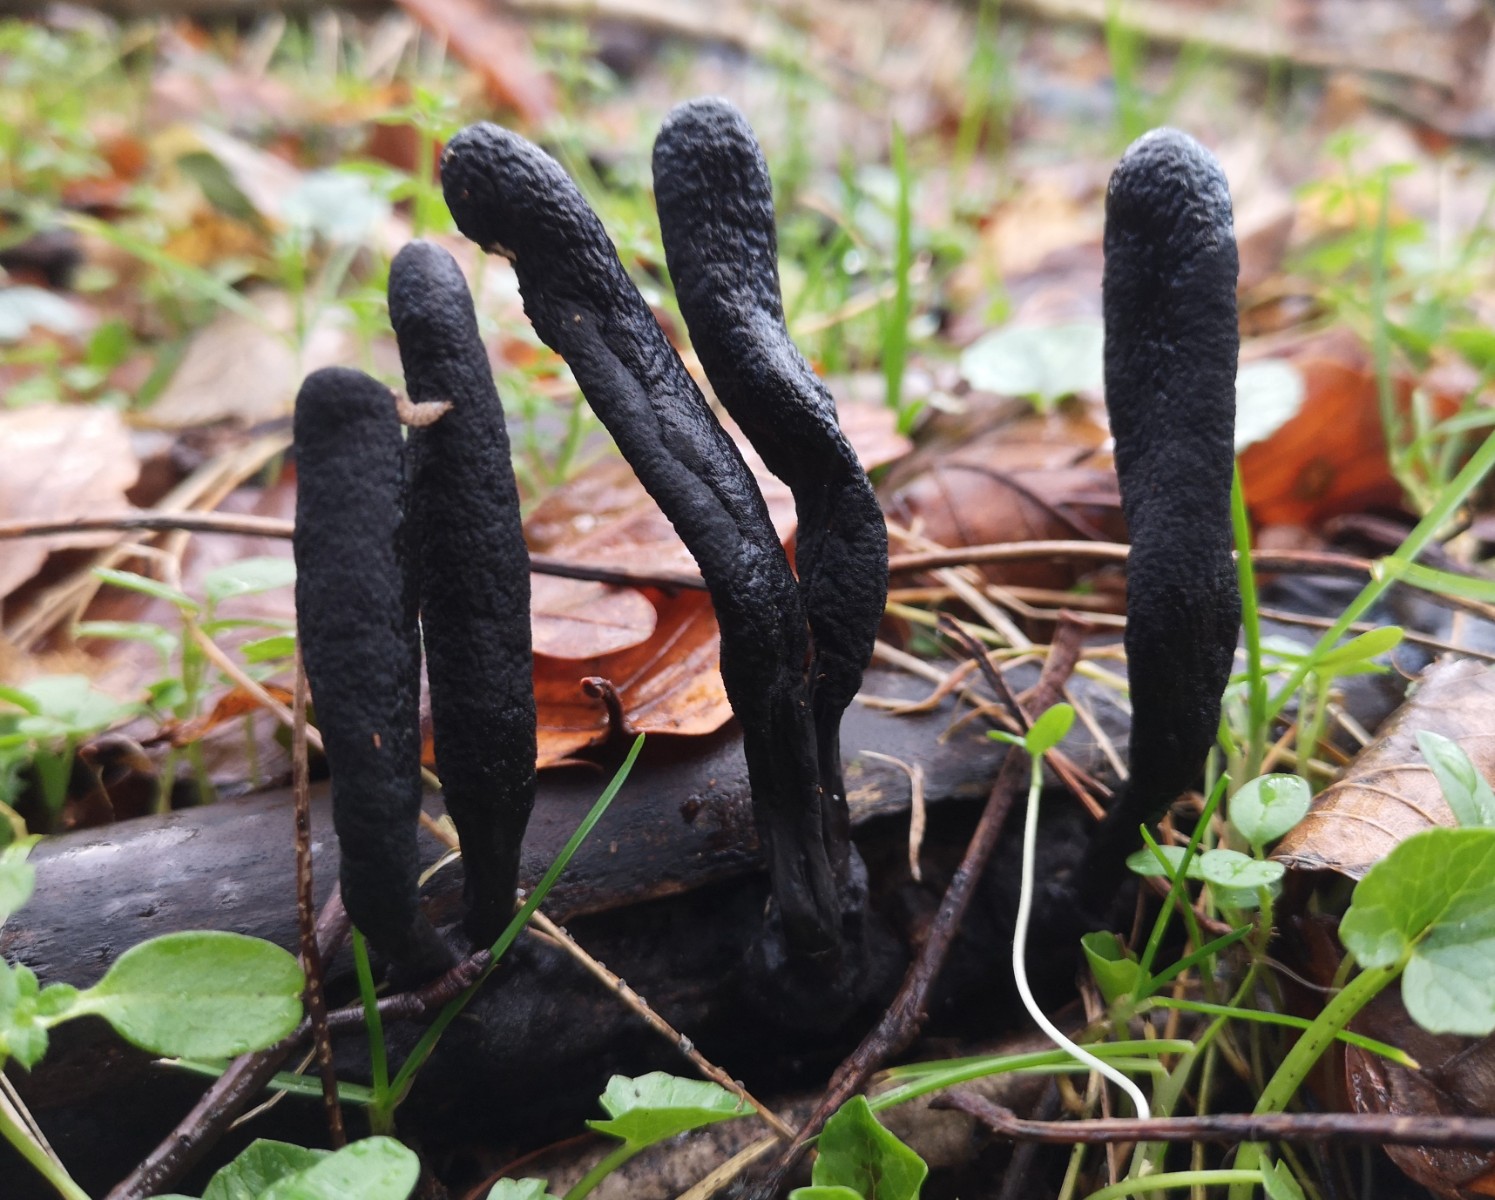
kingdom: Fungi
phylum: Ascomycota
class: Sordariomycetes
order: Xylariales
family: Xylariaceae
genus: Xylaria
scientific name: Xylaria longipes
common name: slank stødsvamp
